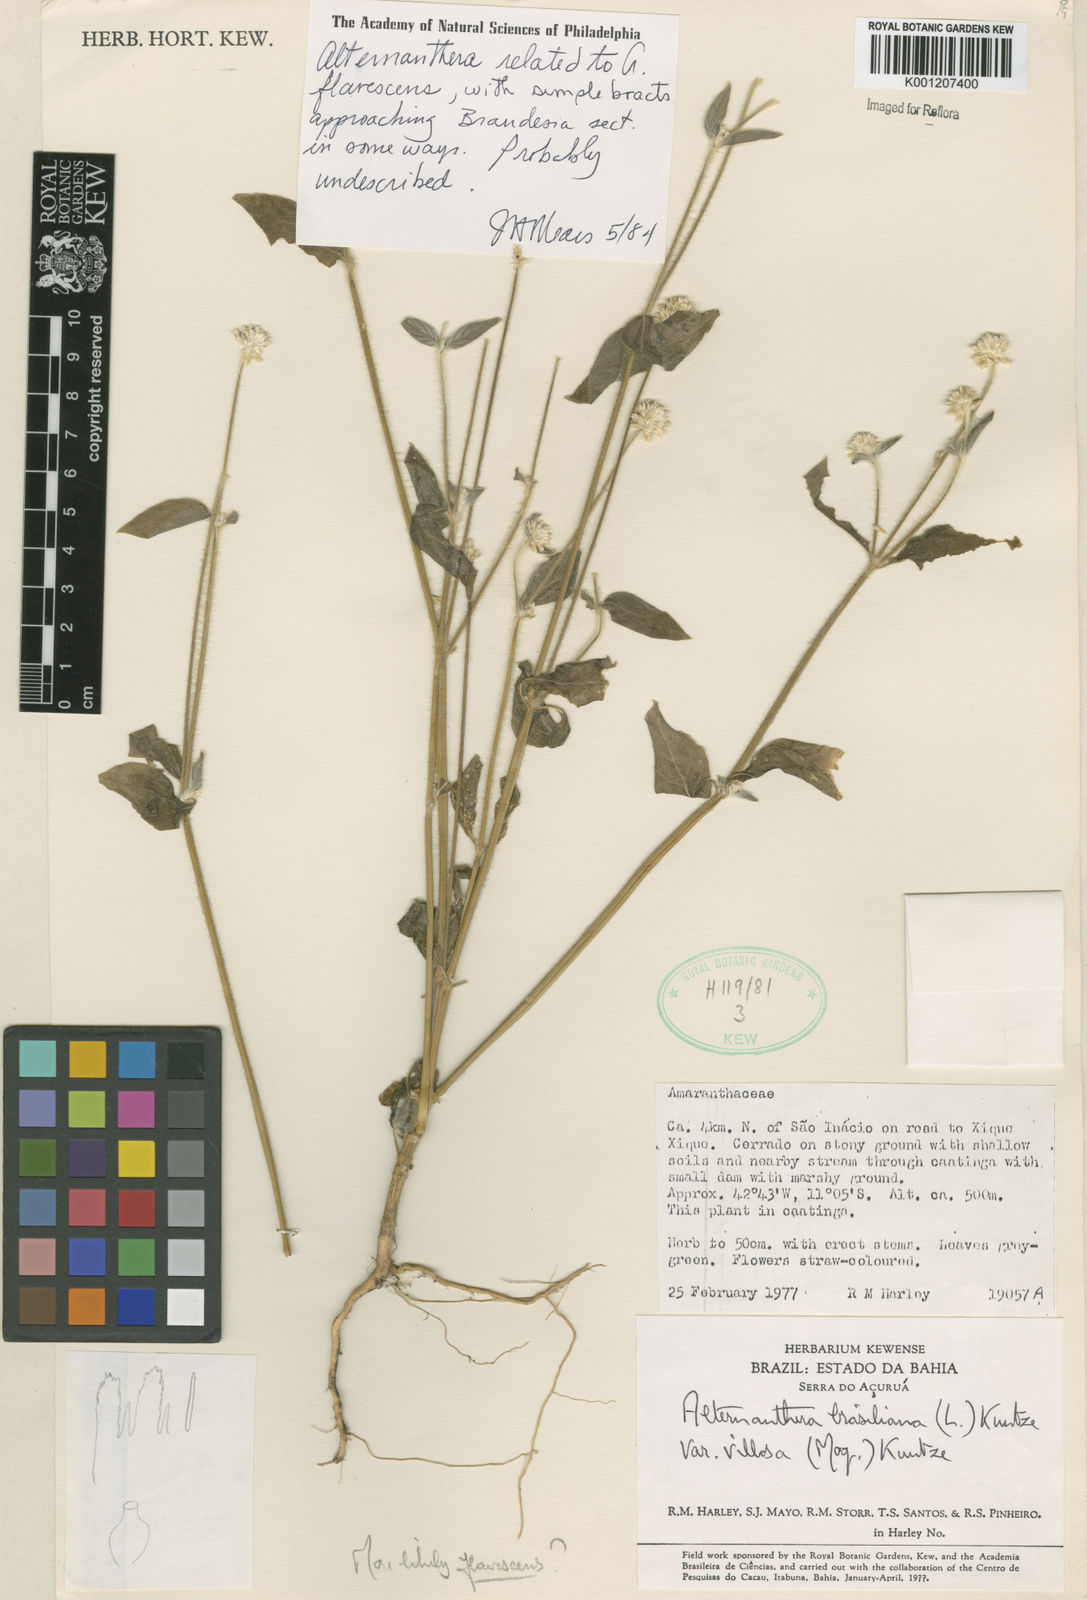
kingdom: Plantae
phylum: Tracheophyta
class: Magnoliopsida
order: Caryophyllales
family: Amaranthaceae
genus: Alternanthera
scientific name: Alternanthera
